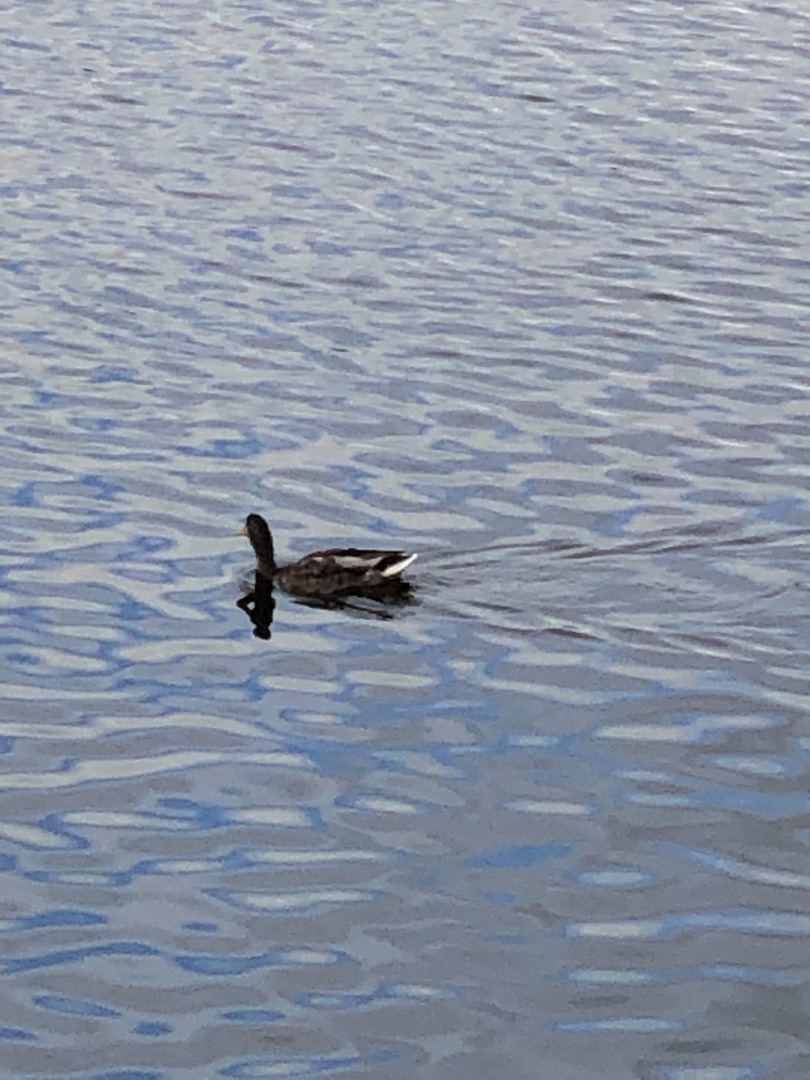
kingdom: Animalia
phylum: Chordata
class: Aves
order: Anseriformes
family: Anatidae
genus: Anas
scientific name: Anas platyrhynchos
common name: Gråand
